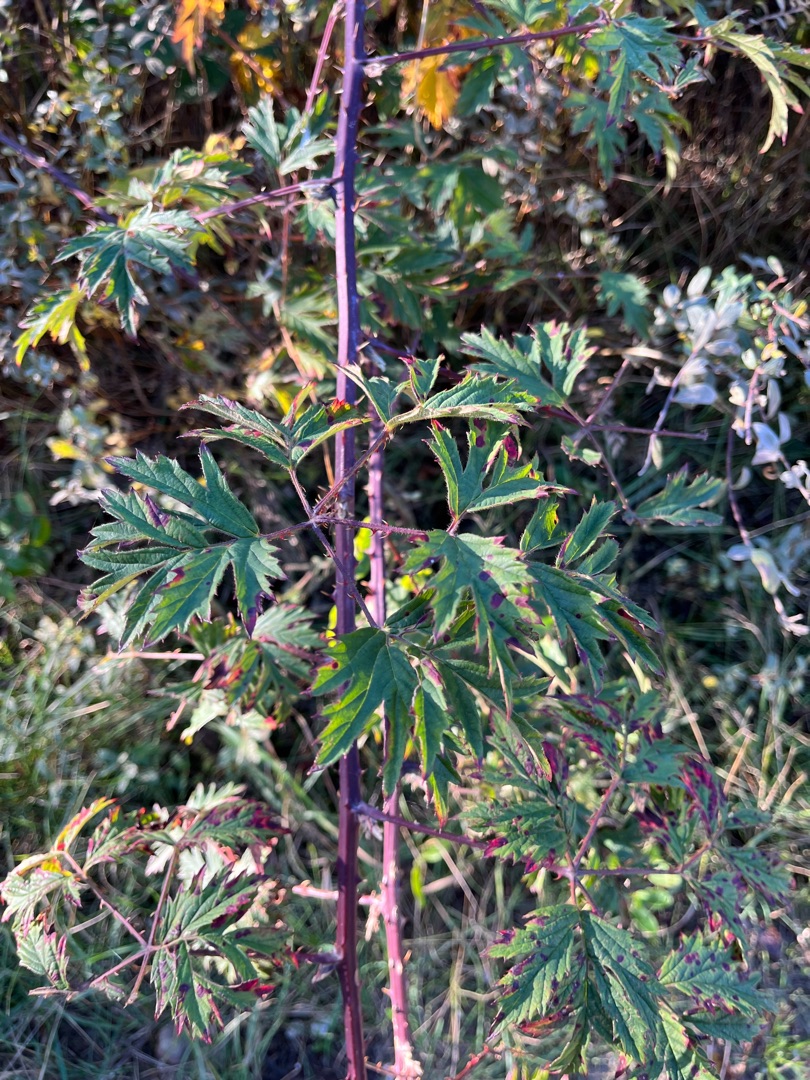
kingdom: Plantae
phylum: Tracheophyta
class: Magnoliopsida
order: Rosales
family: Rosaceae
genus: Rubus
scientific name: Rubus laciniatus
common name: Fliget brombær
